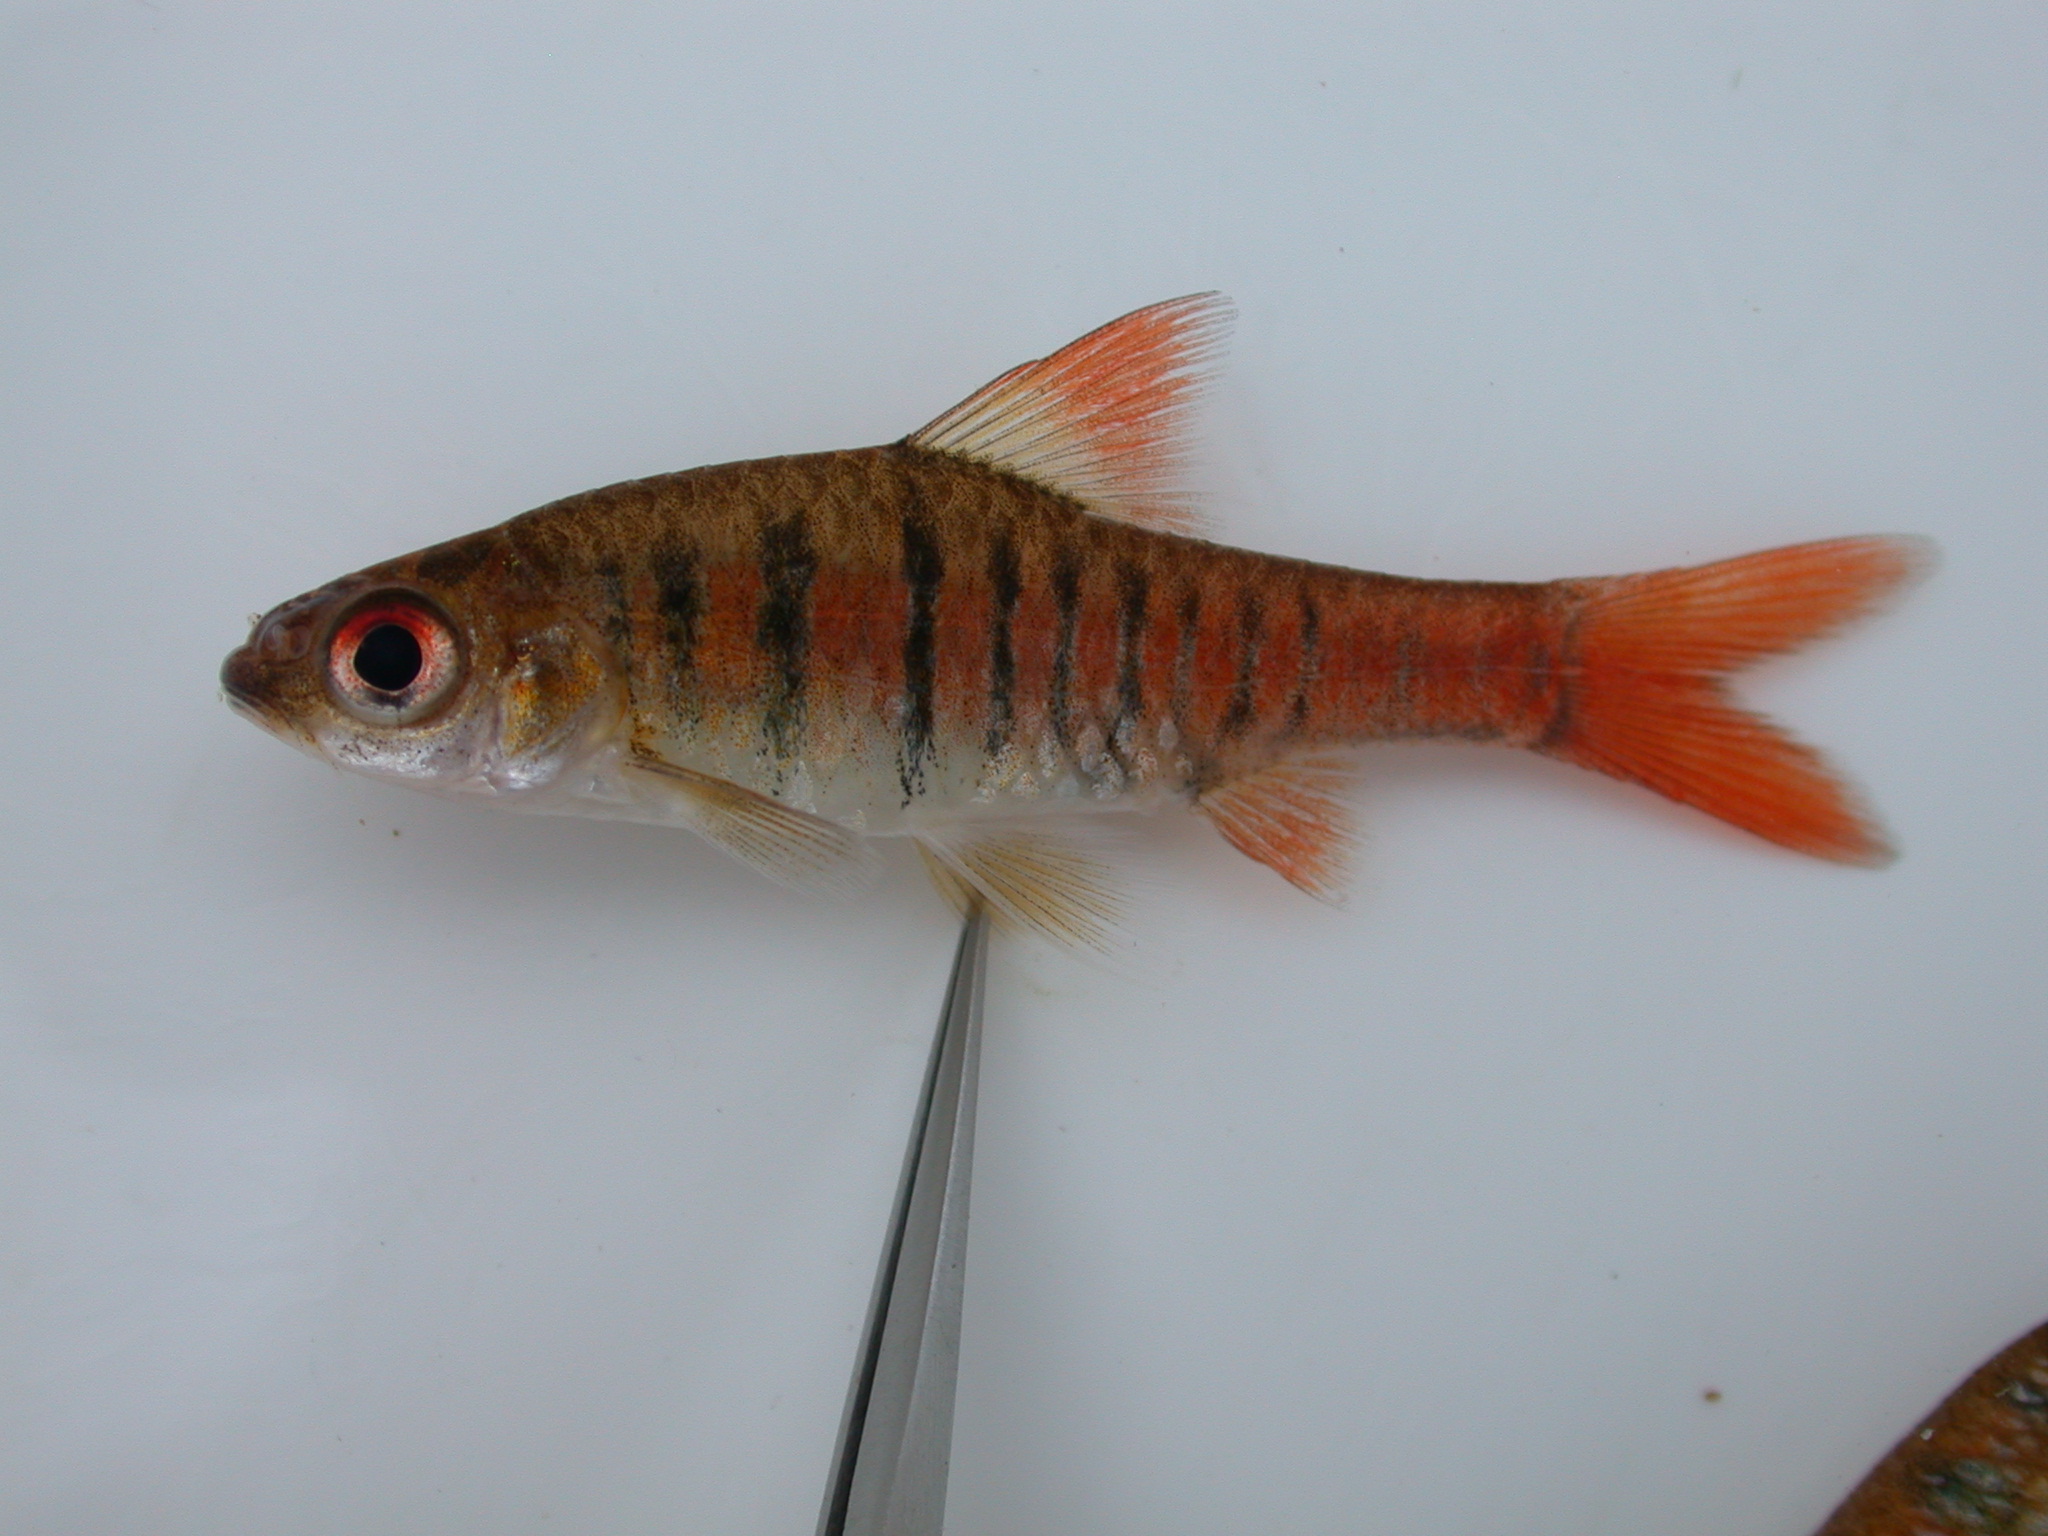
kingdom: Animalia
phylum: Chordata
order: Cypriniformes
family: Cyprinidae
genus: Enteromius
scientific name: Enteromius fasciolatus
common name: Red barb
